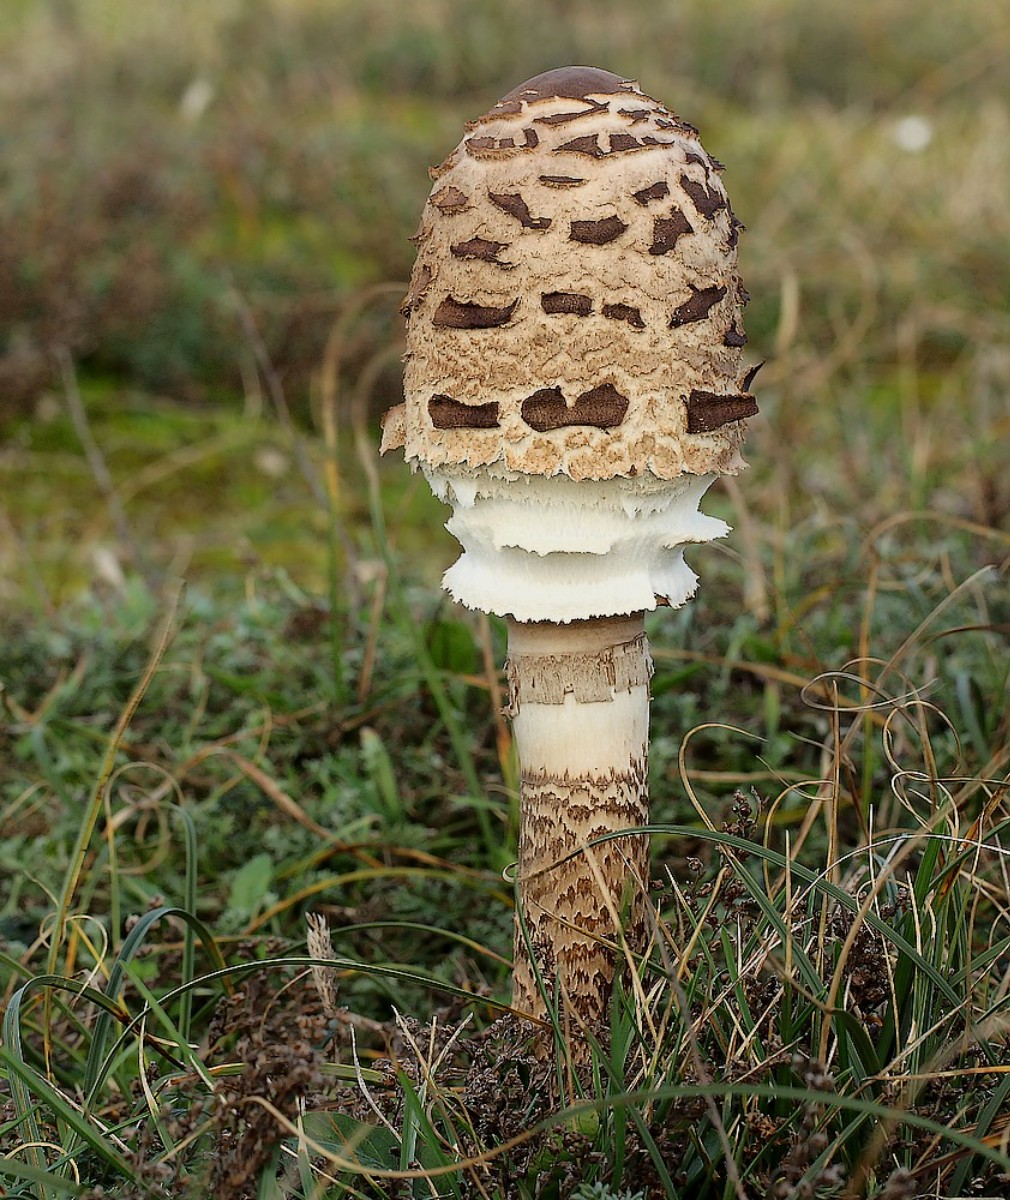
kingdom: Fungi
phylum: Basidiomycota
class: Agaricomycetes
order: Agaricales
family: Agaricaceae
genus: Macrolepiota
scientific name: Macrolepiota procera
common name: stor kæmpeparasolhat
